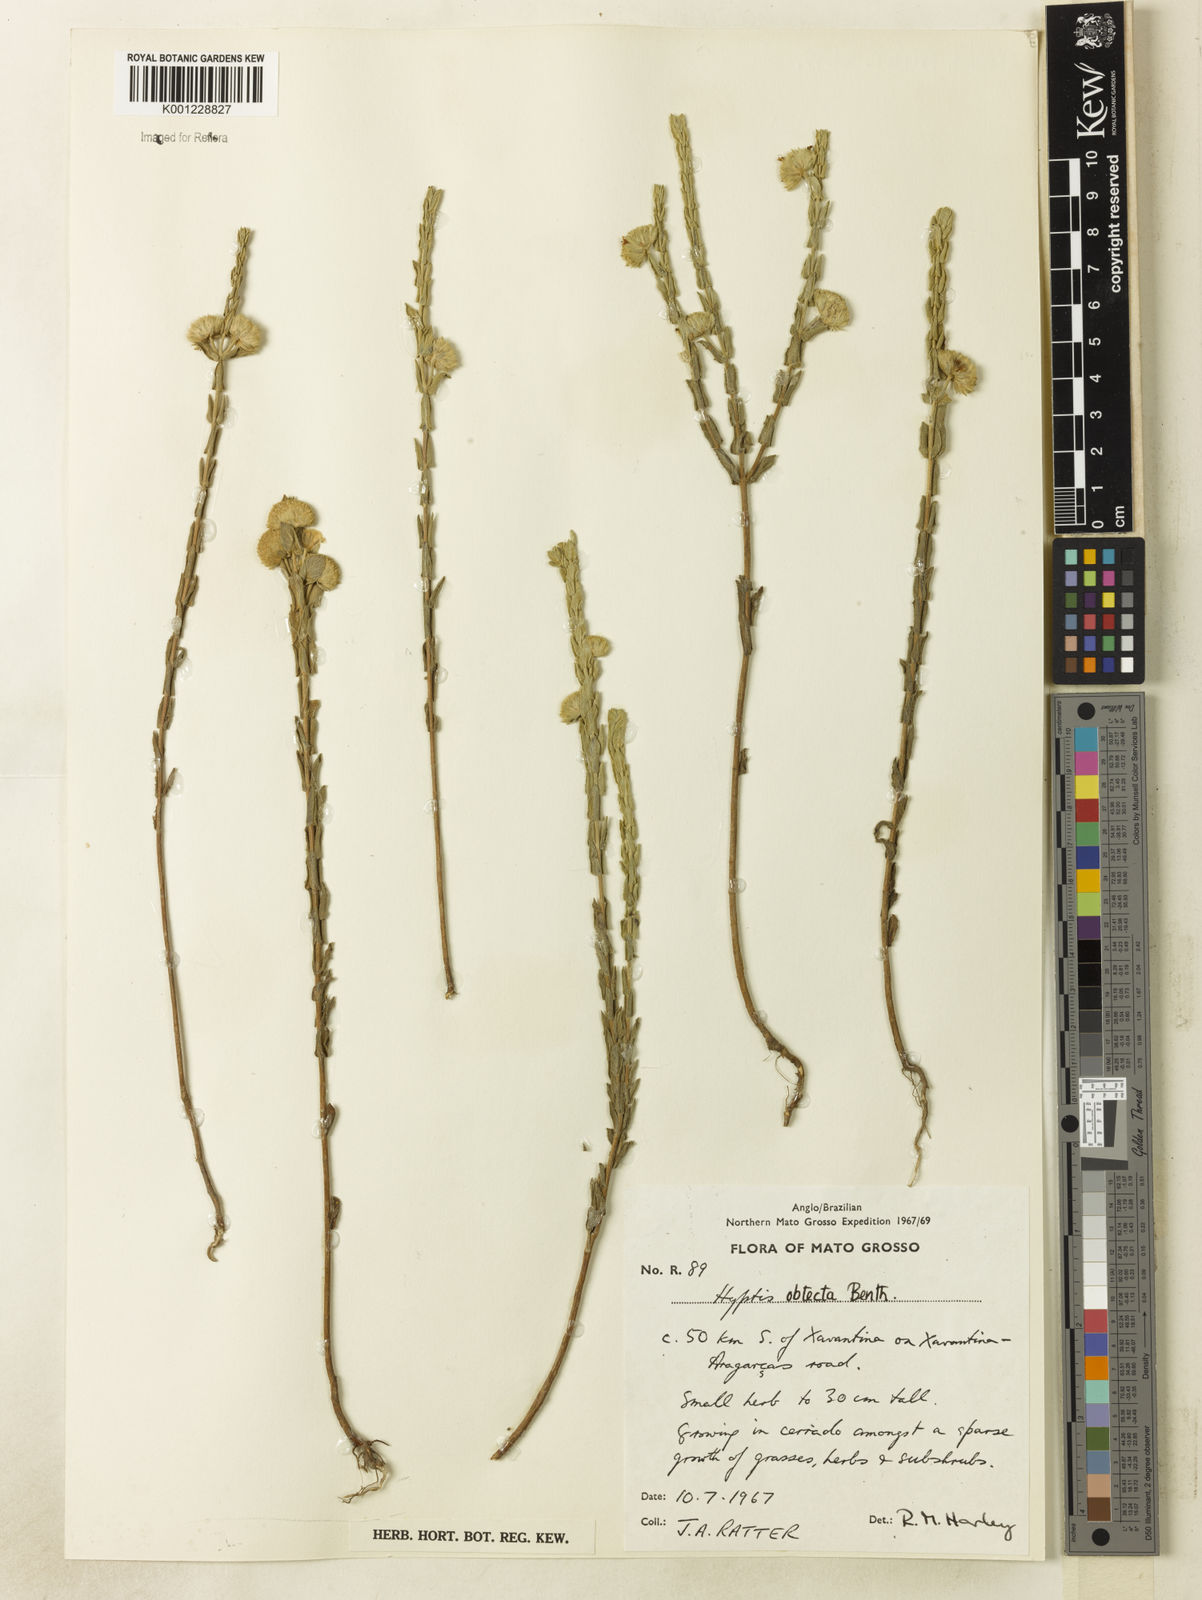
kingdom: Plantae
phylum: Tracheophyta
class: Magnoliopsida
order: Lamiales
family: Lamiaceae
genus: Hyptis
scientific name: Hyptis obtecta
